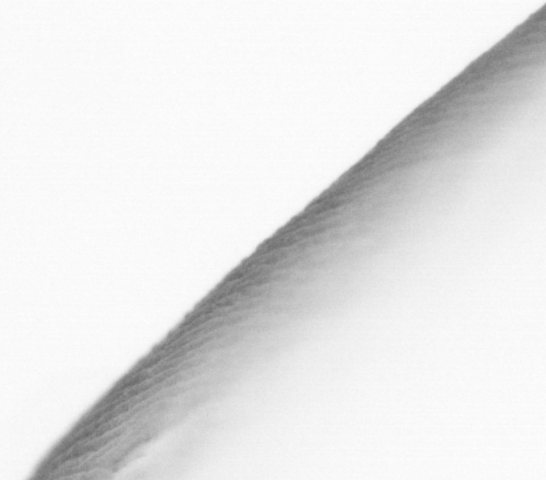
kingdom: Animalia
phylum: Chordata
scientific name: Chordata
